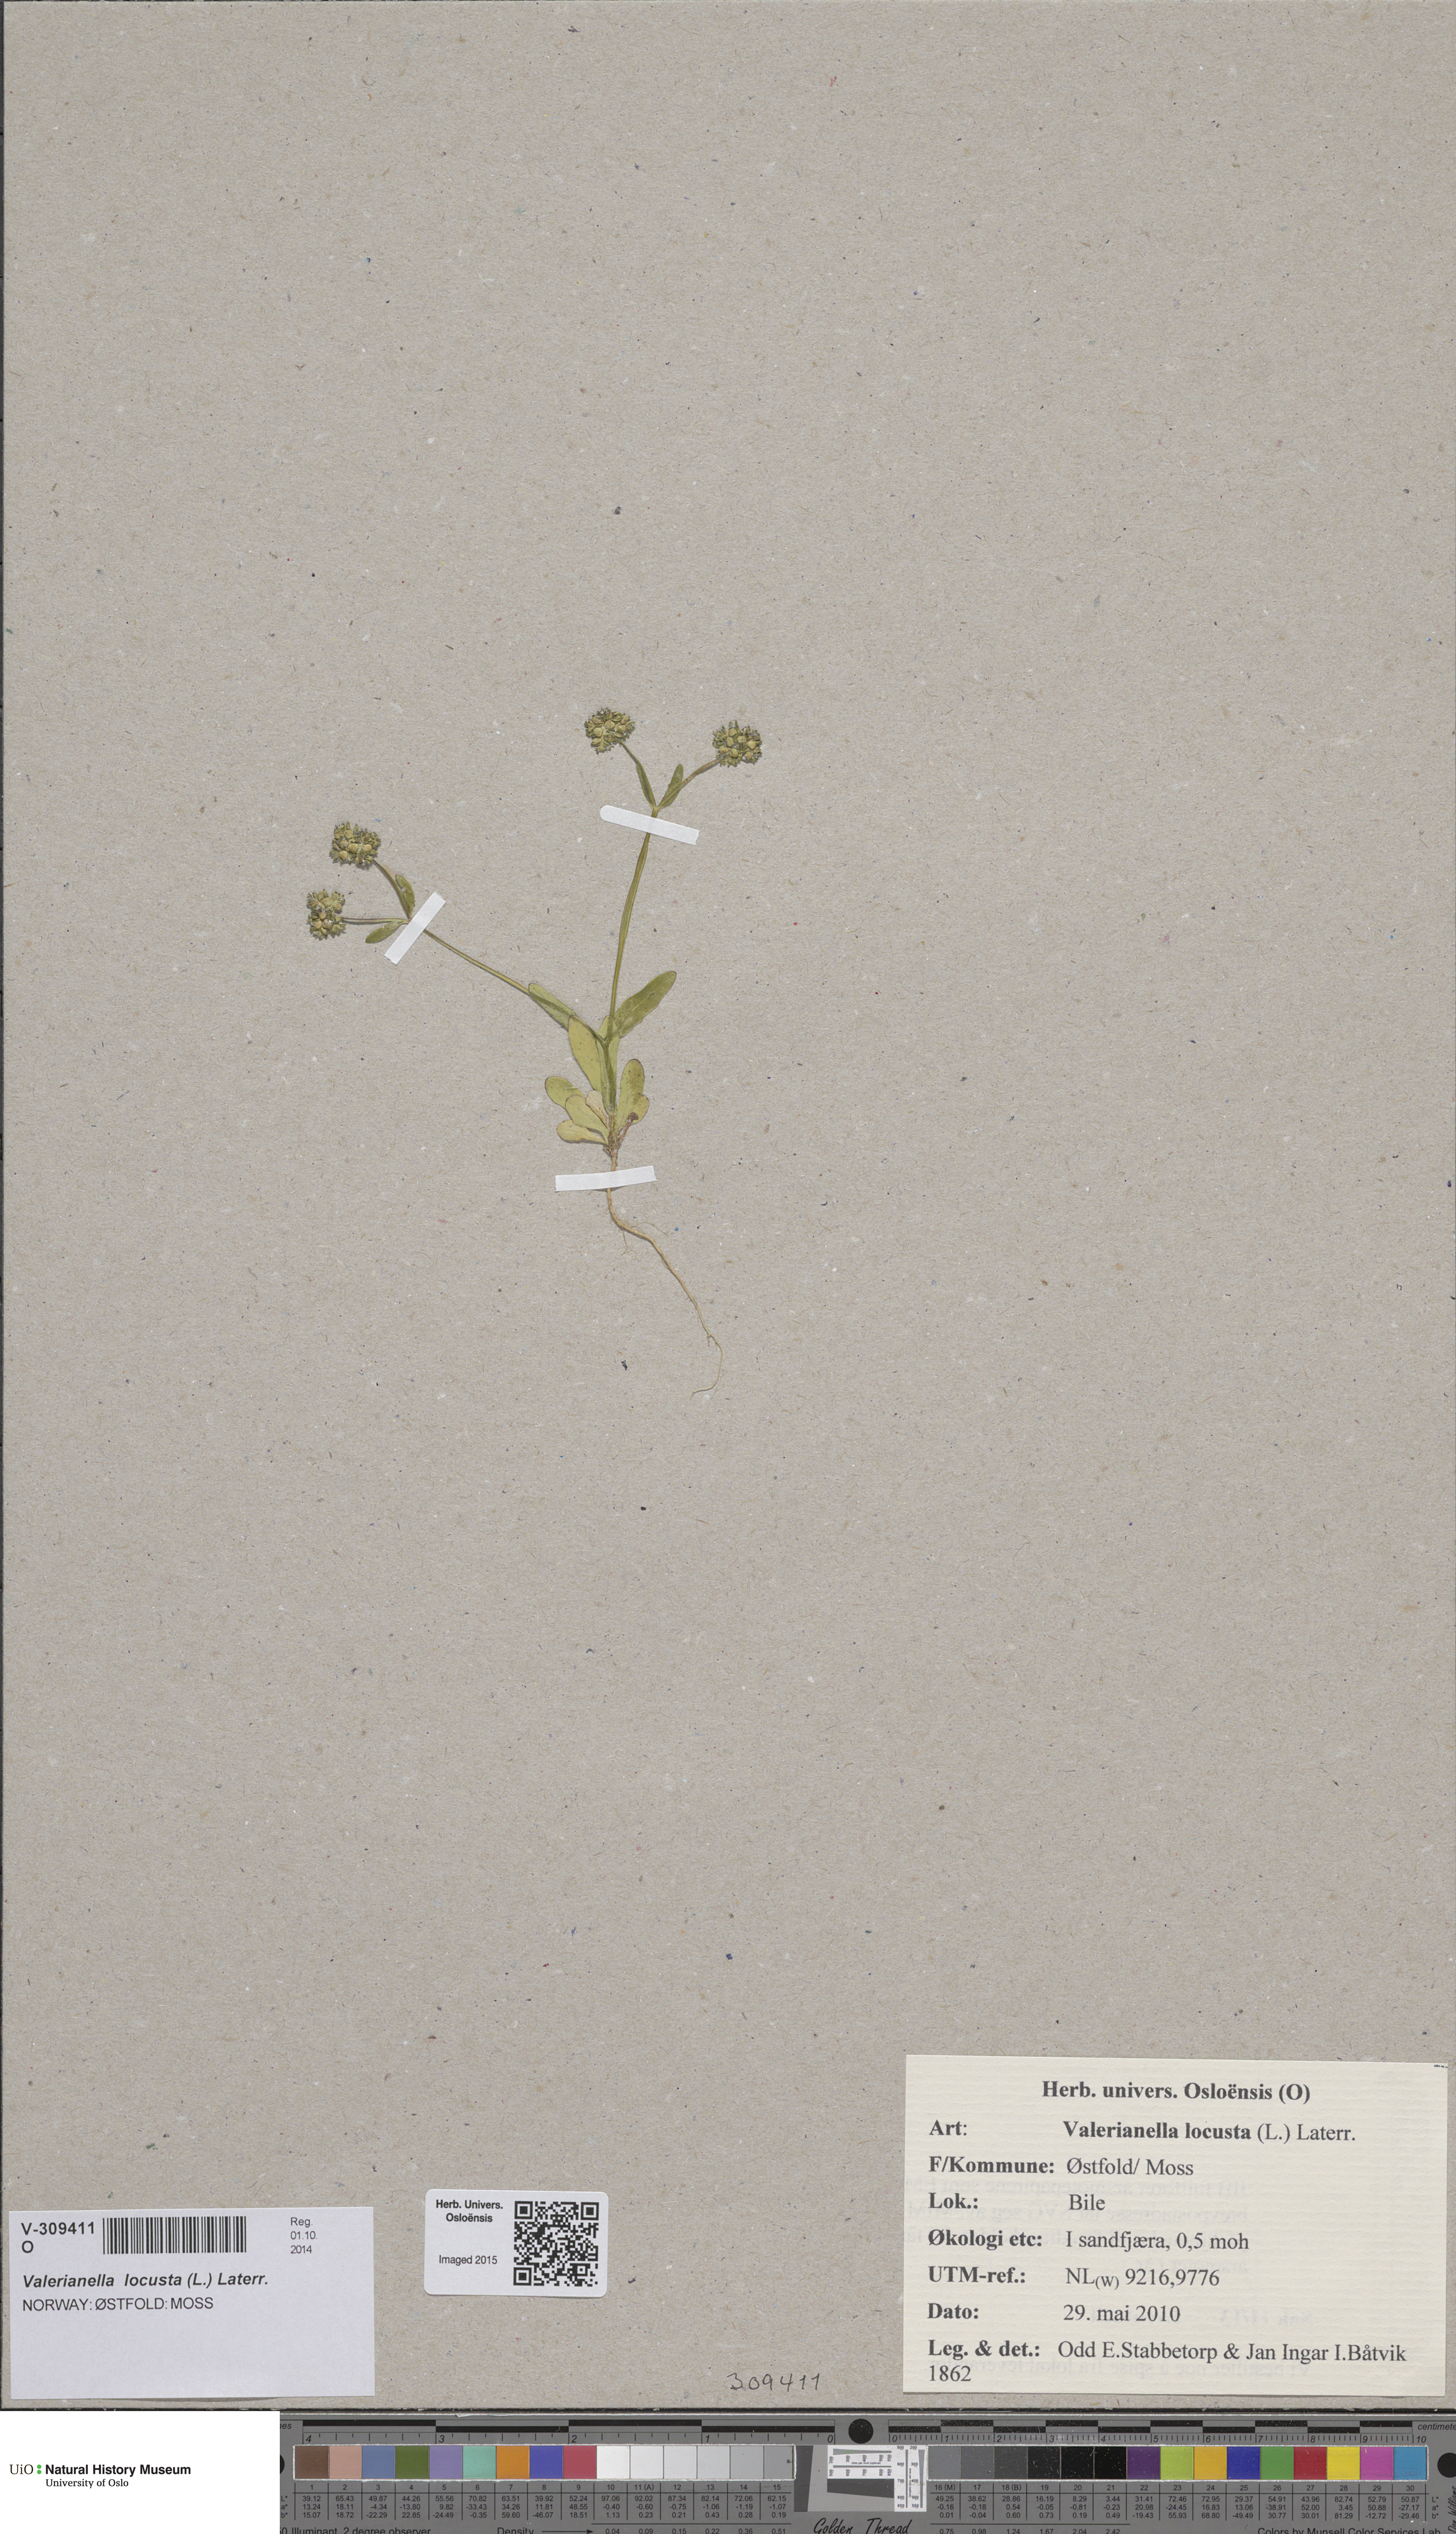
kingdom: Plantae
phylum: Tracheophyta
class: Magnoliopsida
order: Dipsacales
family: Caprifoliaceae
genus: Valerianella
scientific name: Valerianella locusta
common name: Common cornsalad
